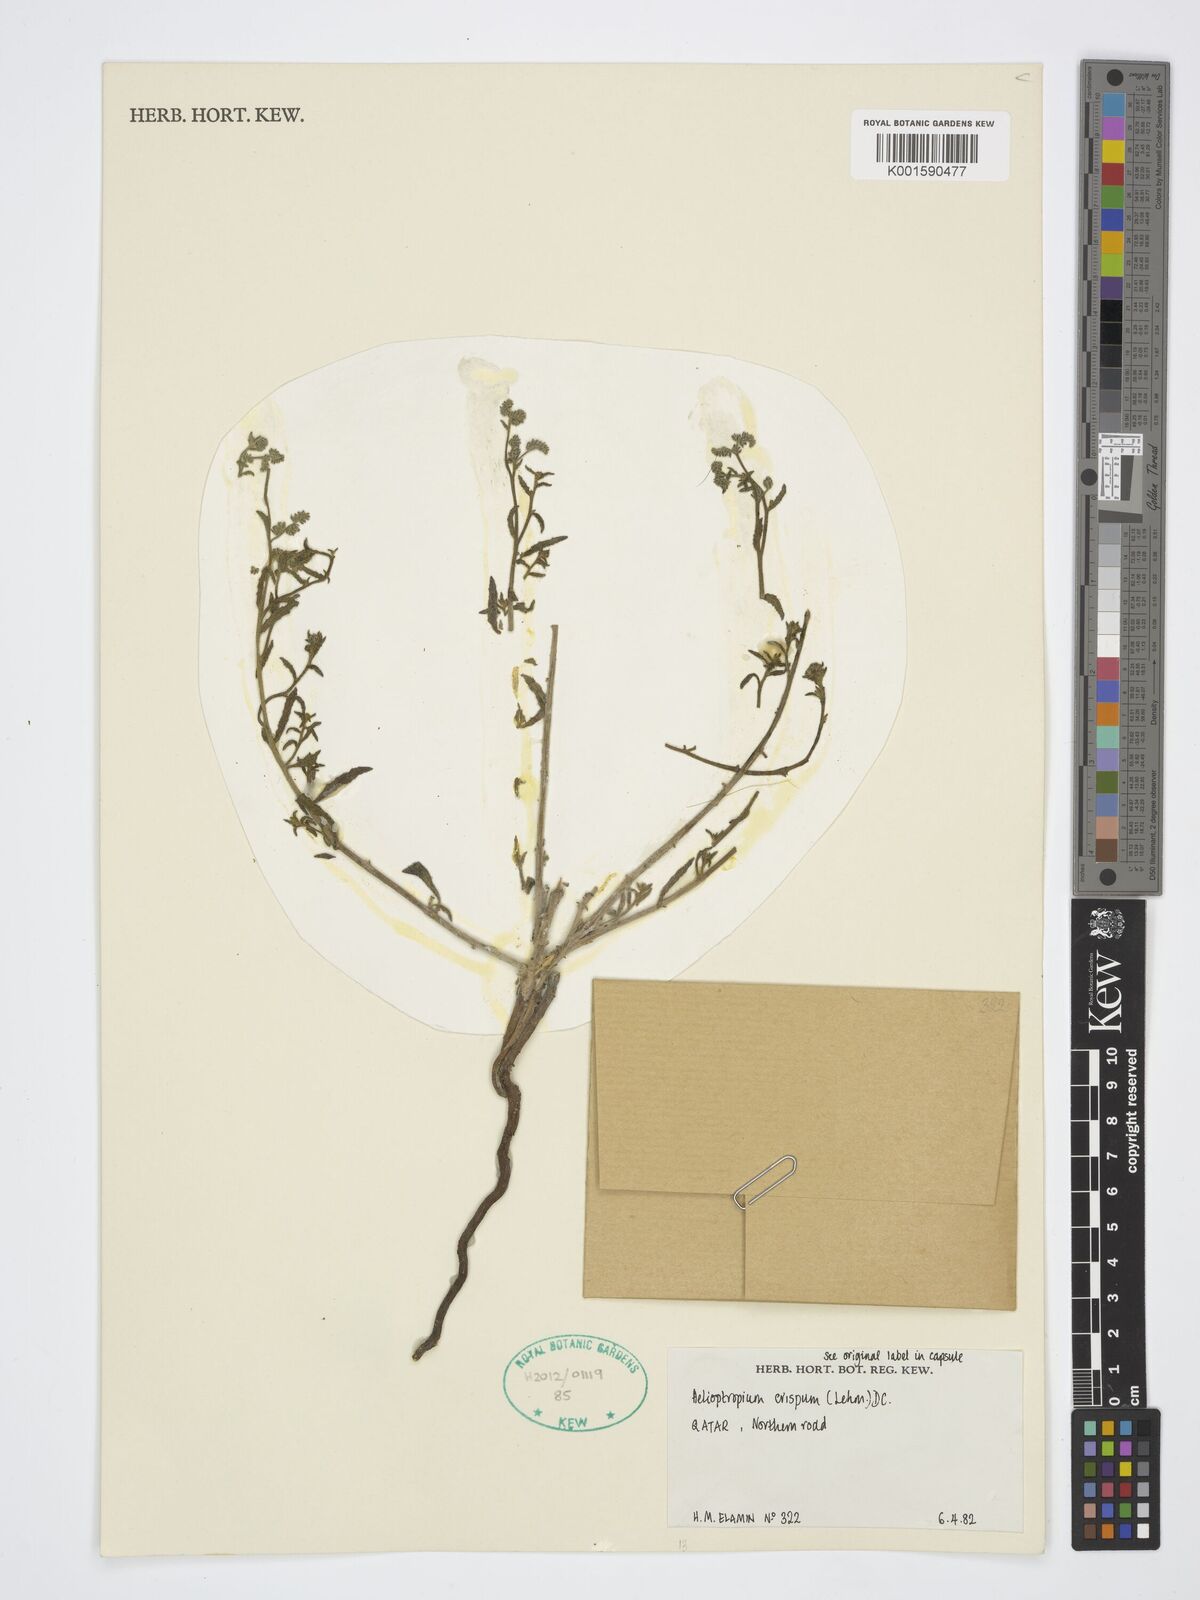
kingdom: Plantae
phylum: Tracheophyta
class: Magnoliopsida
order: Boraginales
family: Heliotropiaceae
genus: Heliotropium
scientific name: Heliotropium crispum
